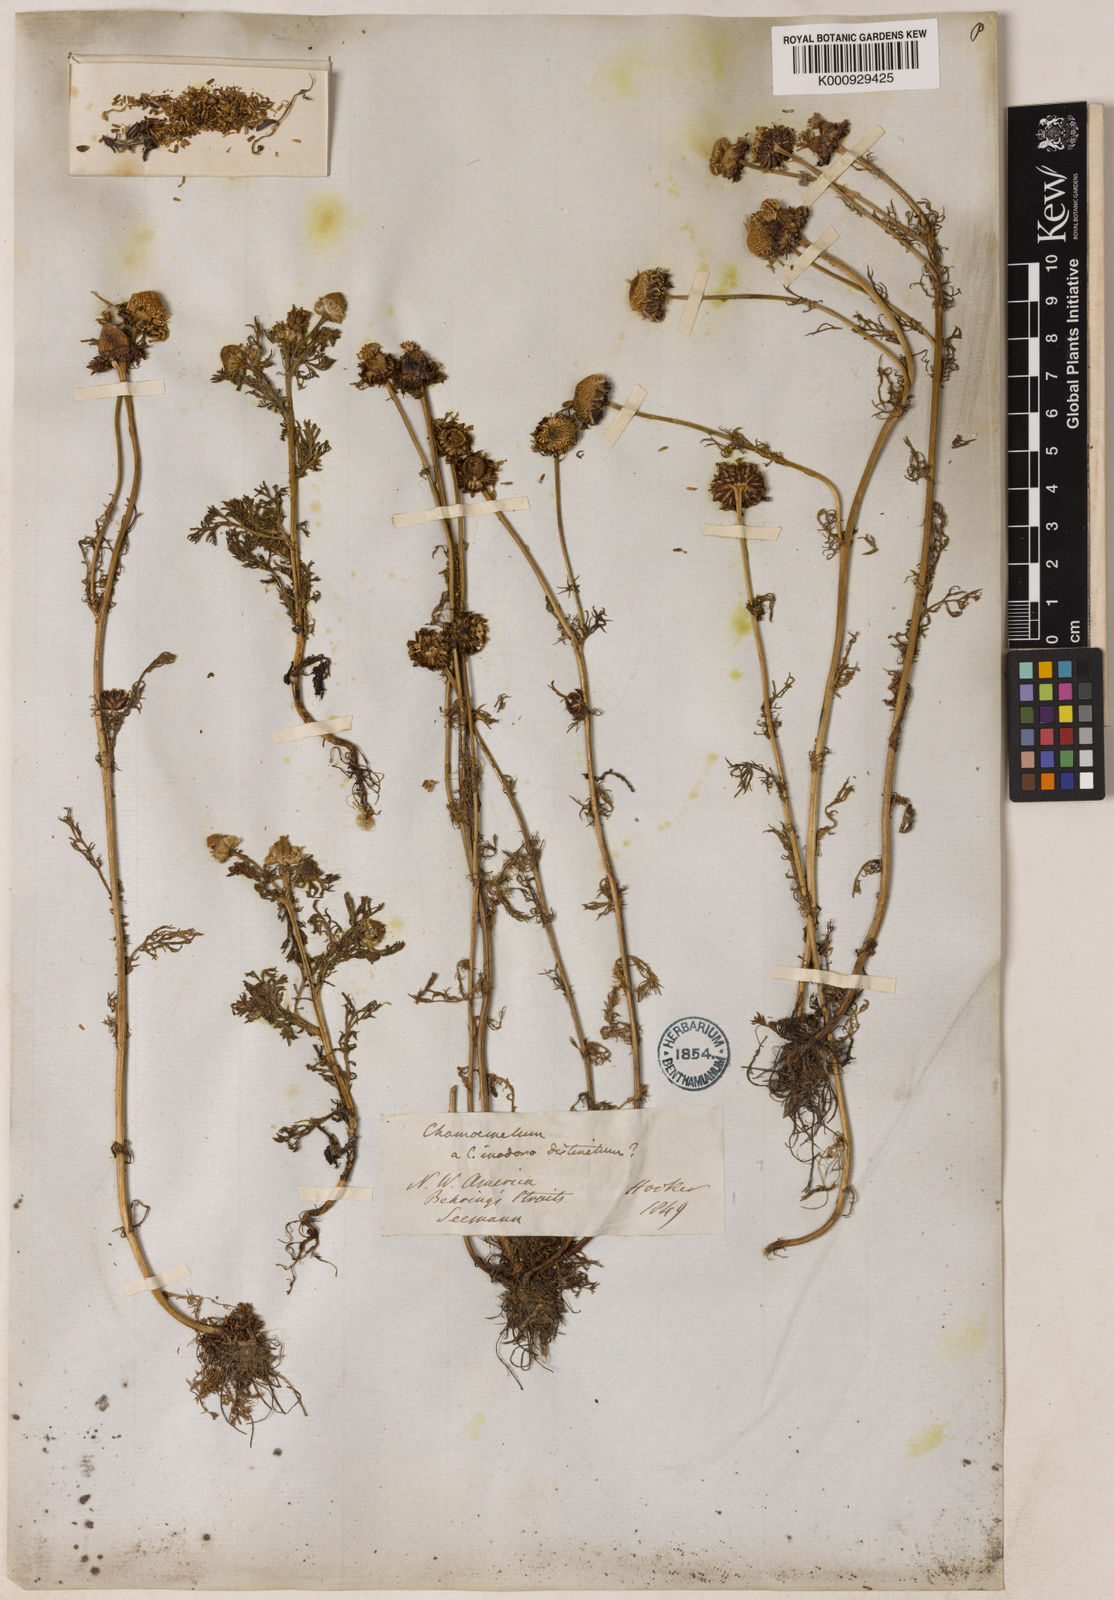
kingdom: Plantae
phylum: Tracheophyta
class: Magnoliopsida
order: Asterales
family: Asteraceae
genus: Tripleurospermum
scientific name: Tripleurospermum
